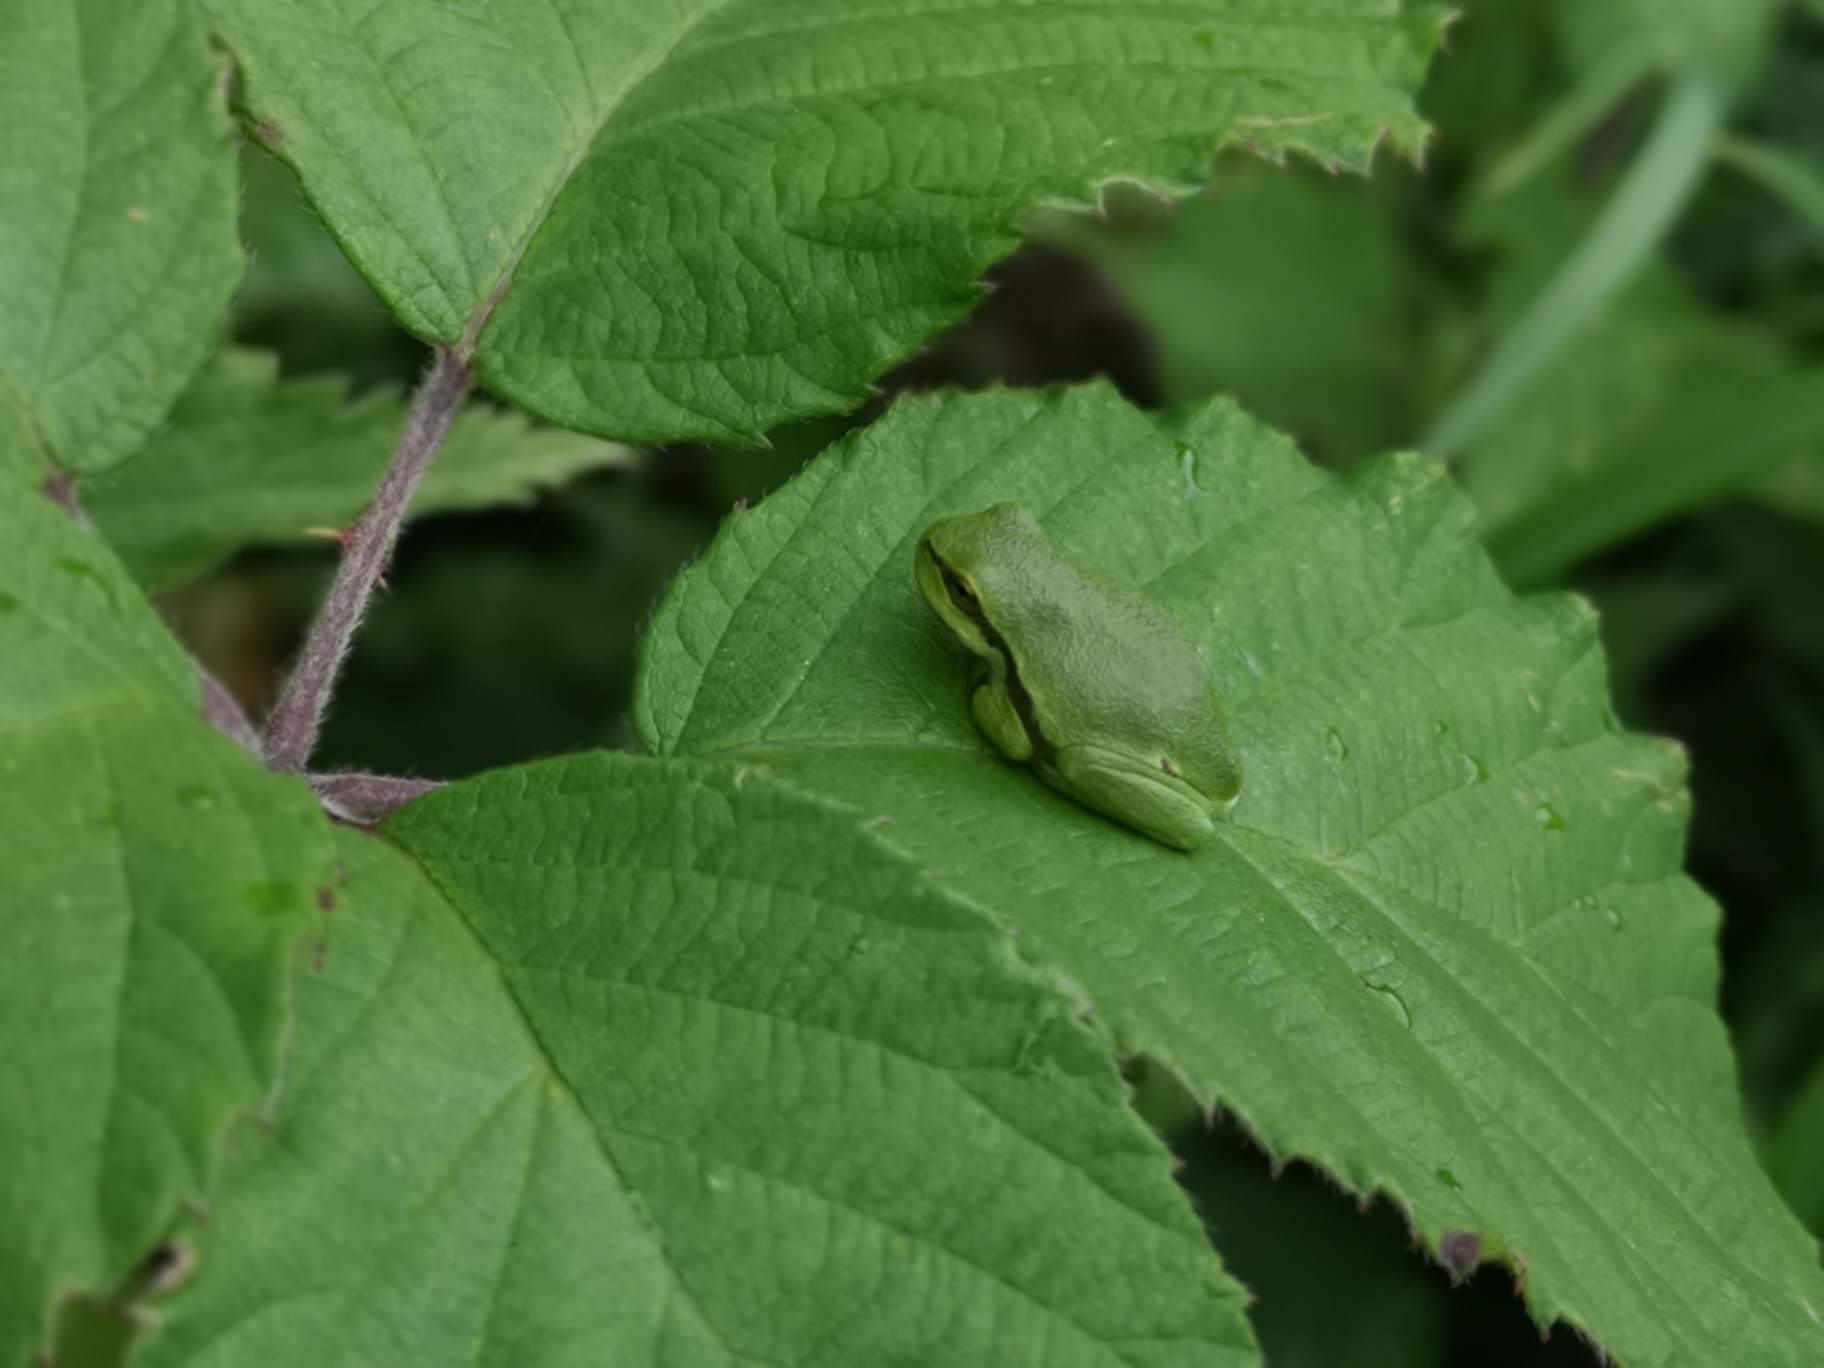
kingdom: Animalia
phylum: Chordata
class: Amphibia
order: Anura
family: Hylidae
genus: Hyla
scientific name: Hyla arborea
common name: Løvfrø
